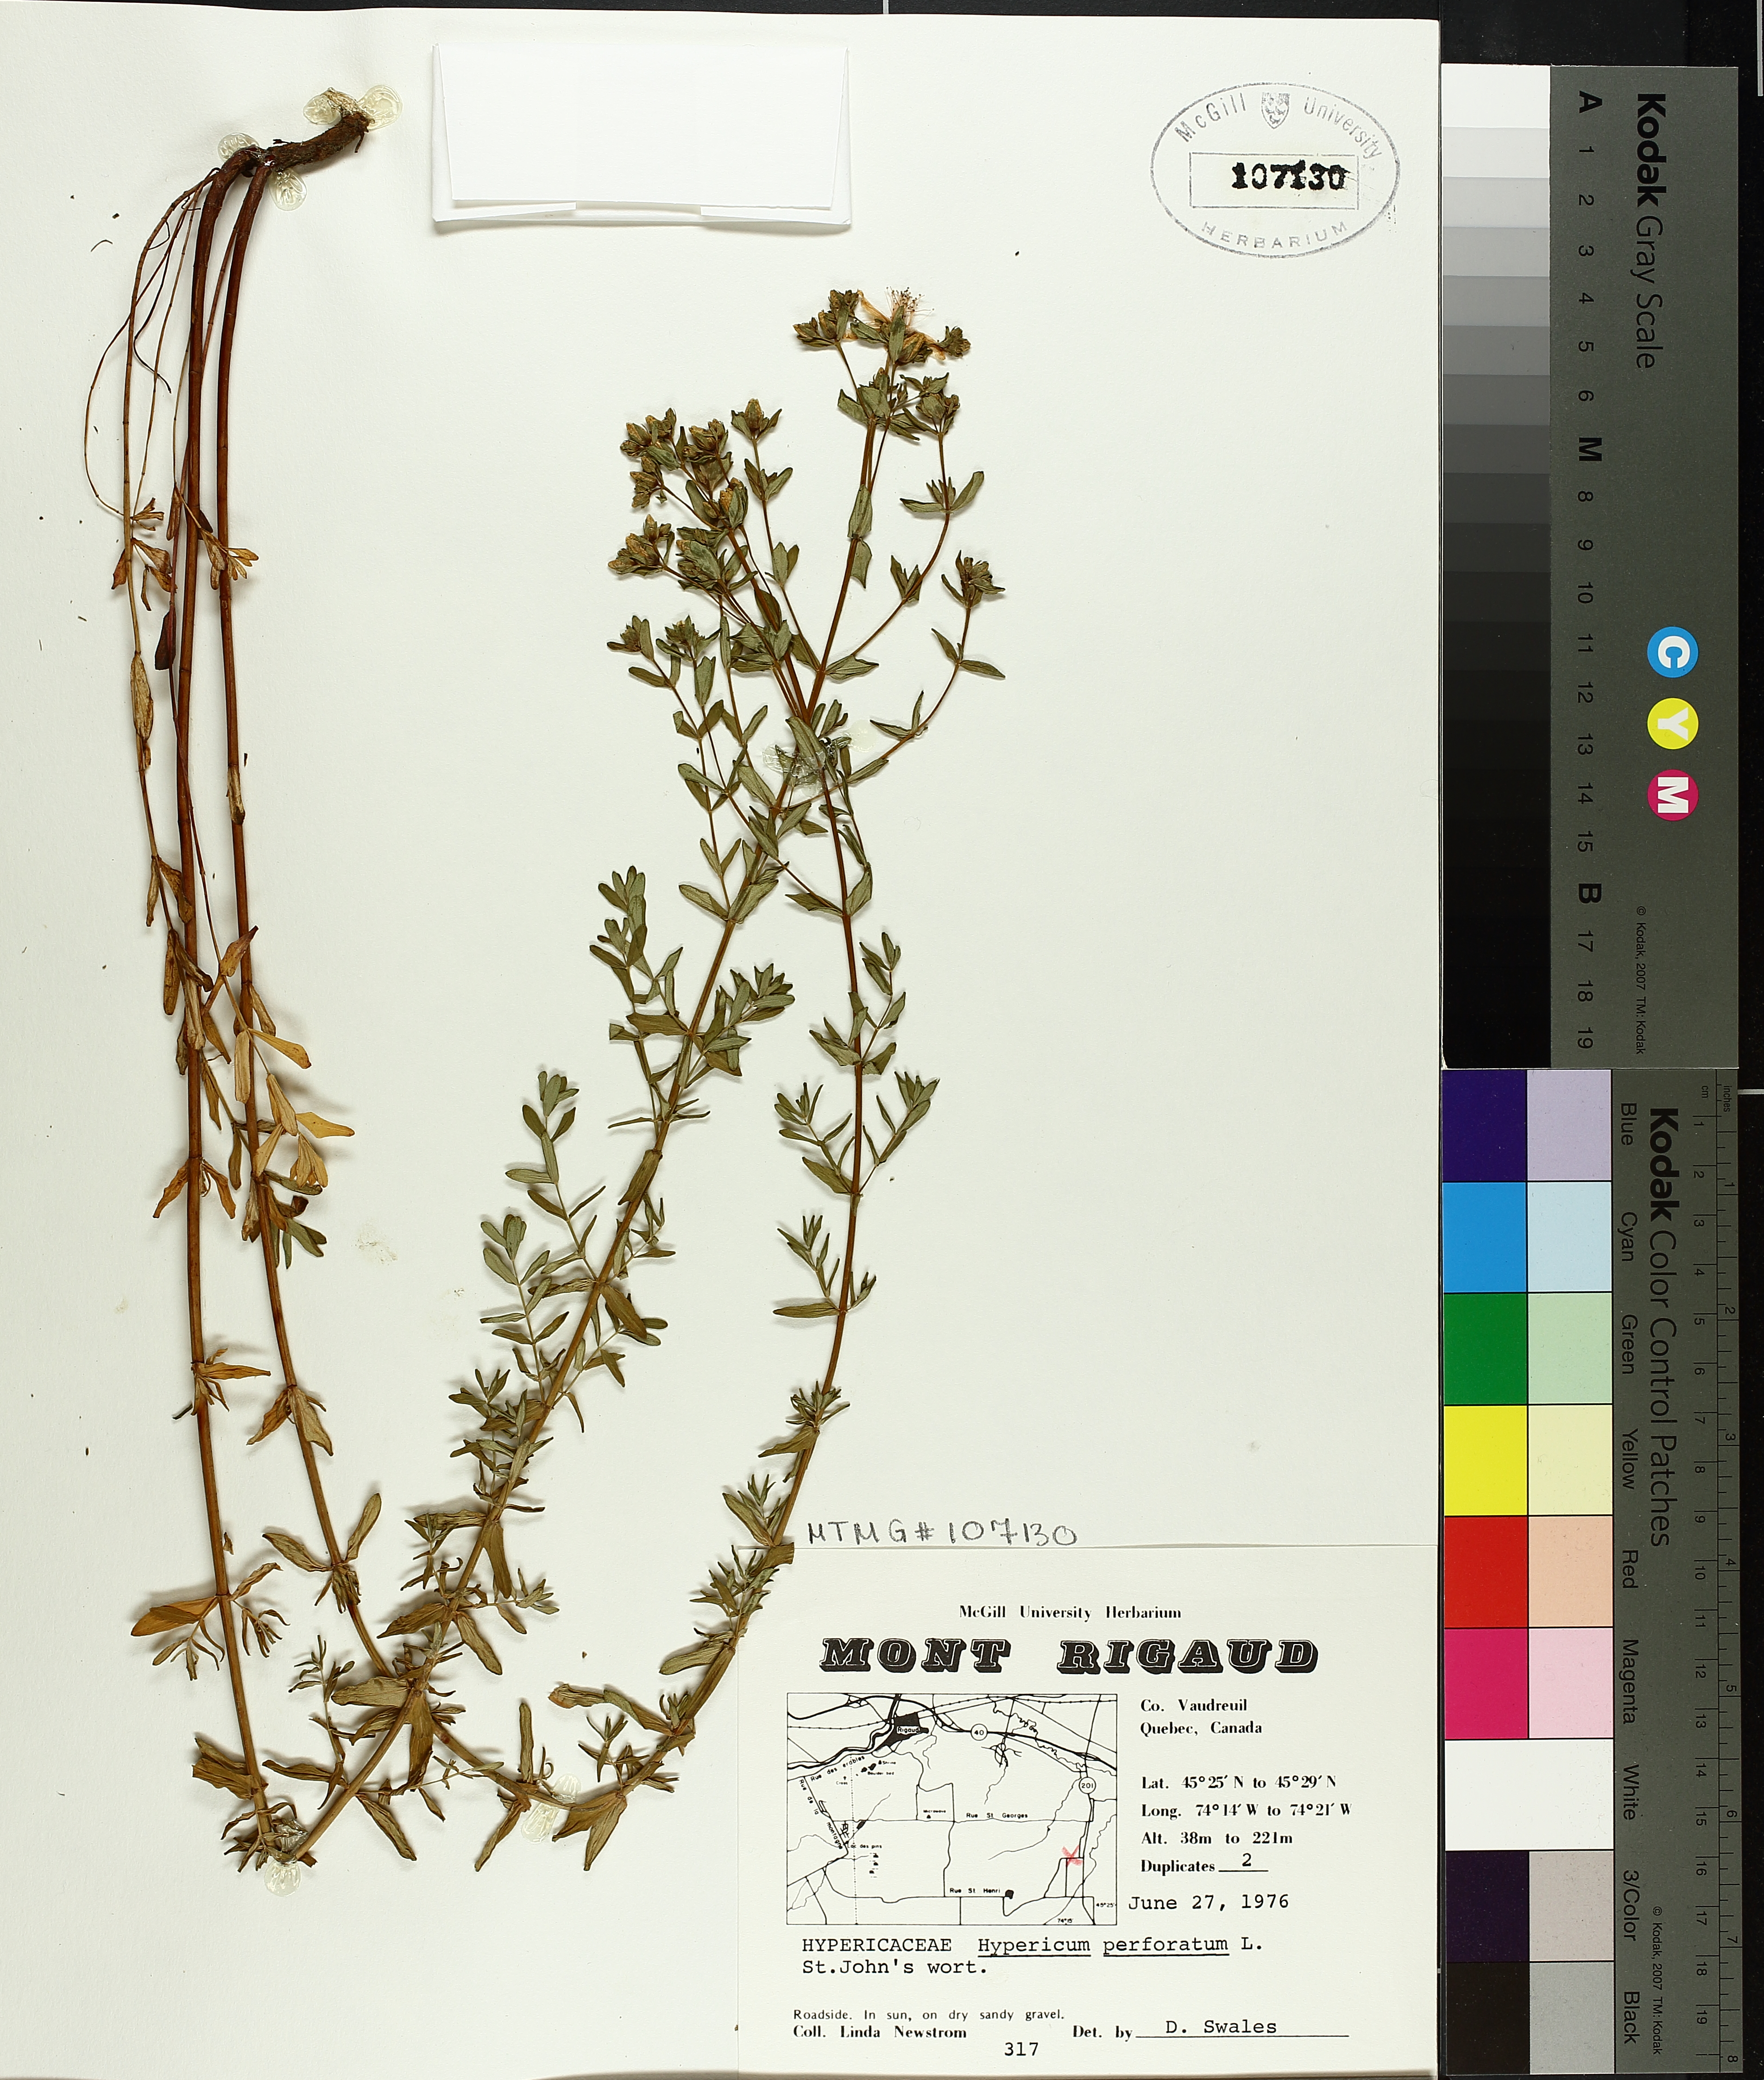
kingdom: Plantae
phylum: Tracheophyta
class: Magnoliopsida
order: Malpighiales
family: Hypericaceae
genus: Hypericum
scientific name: Hypericum perforatum
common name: Common st. johnswort
